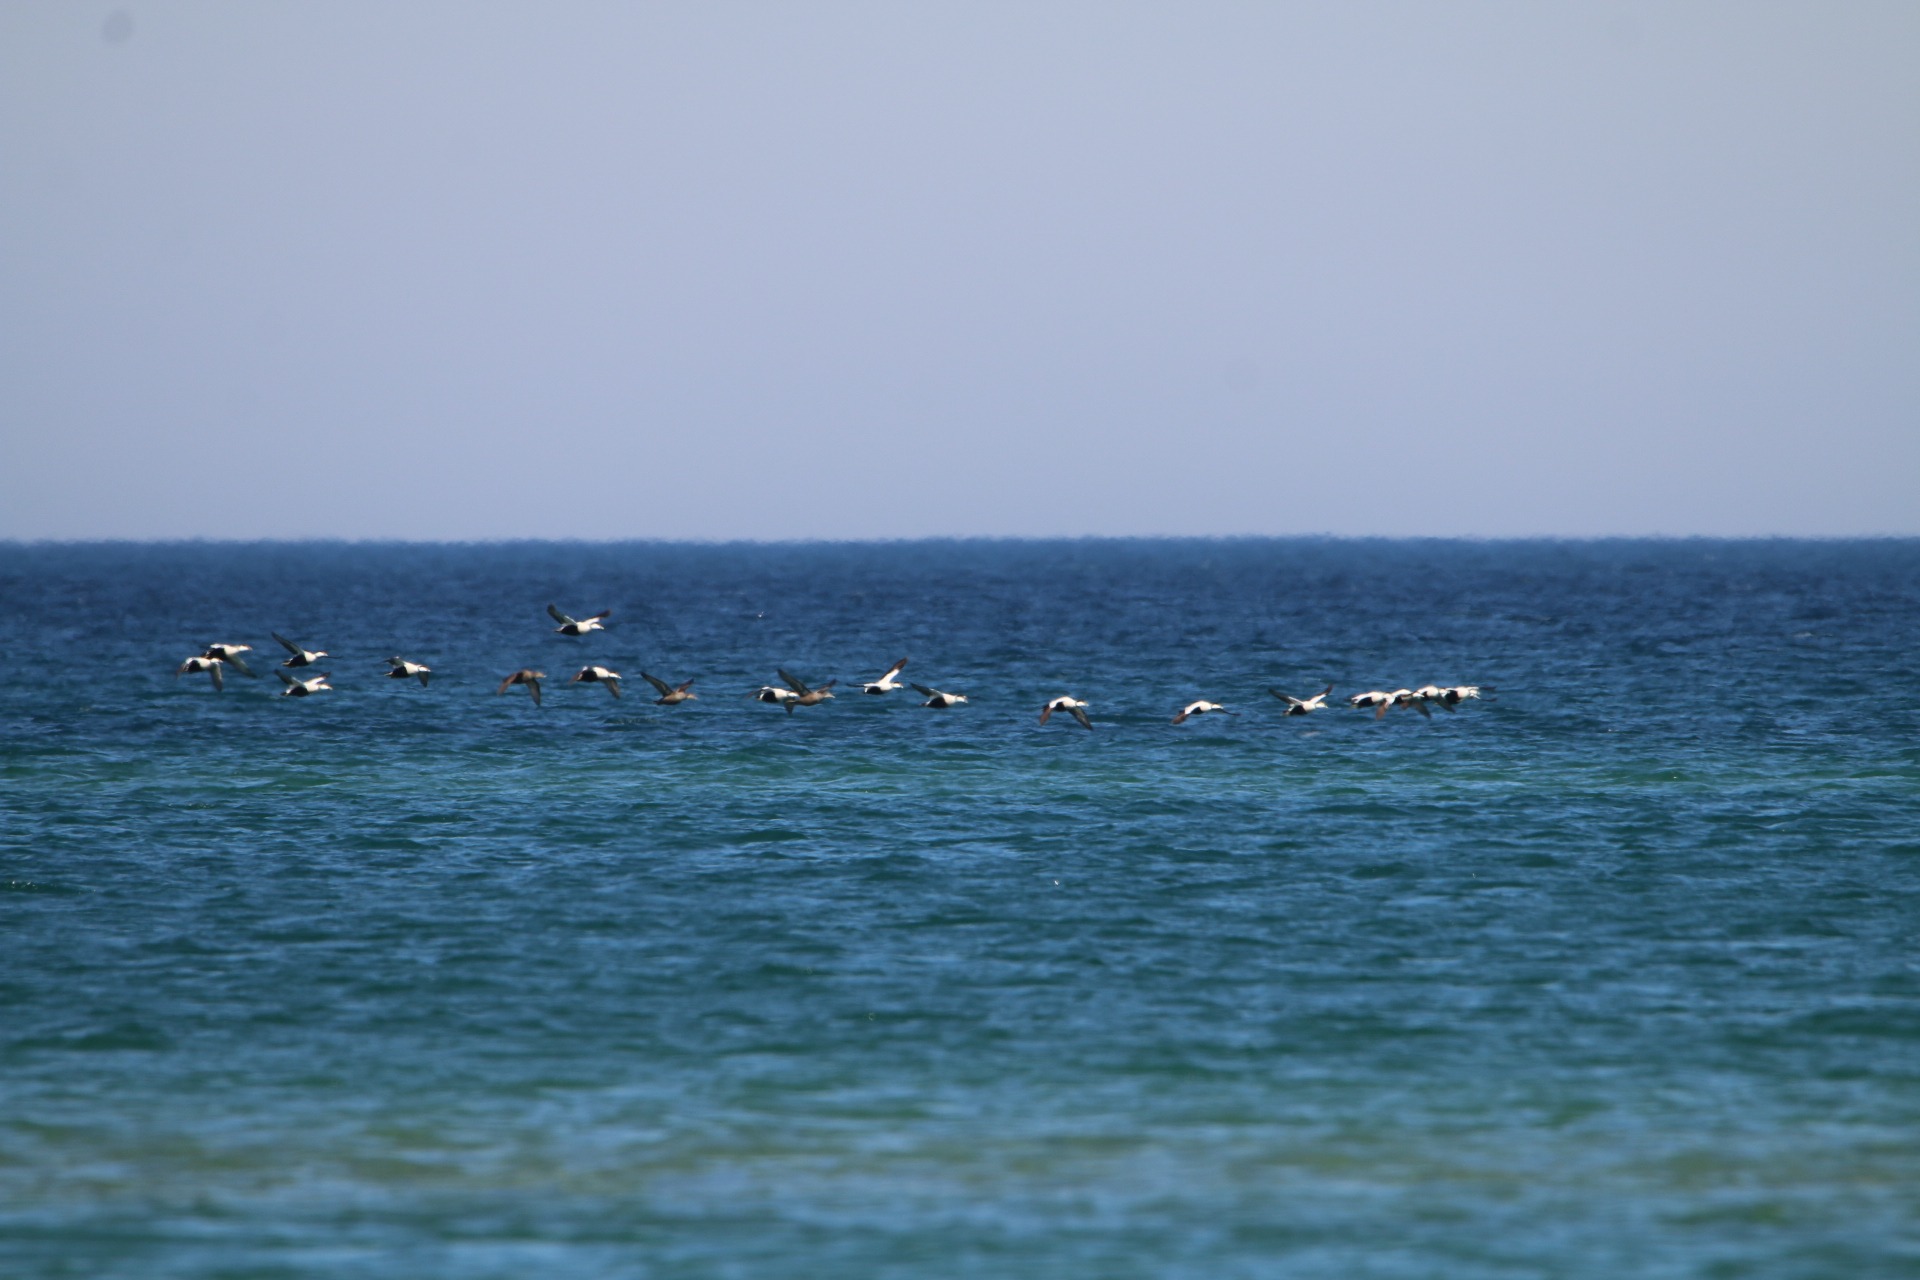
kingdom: Animalia
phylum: Chordata
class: Aves
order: Anseriformes
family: Anatidae
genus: Somateria
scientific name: Somateria mollissima
